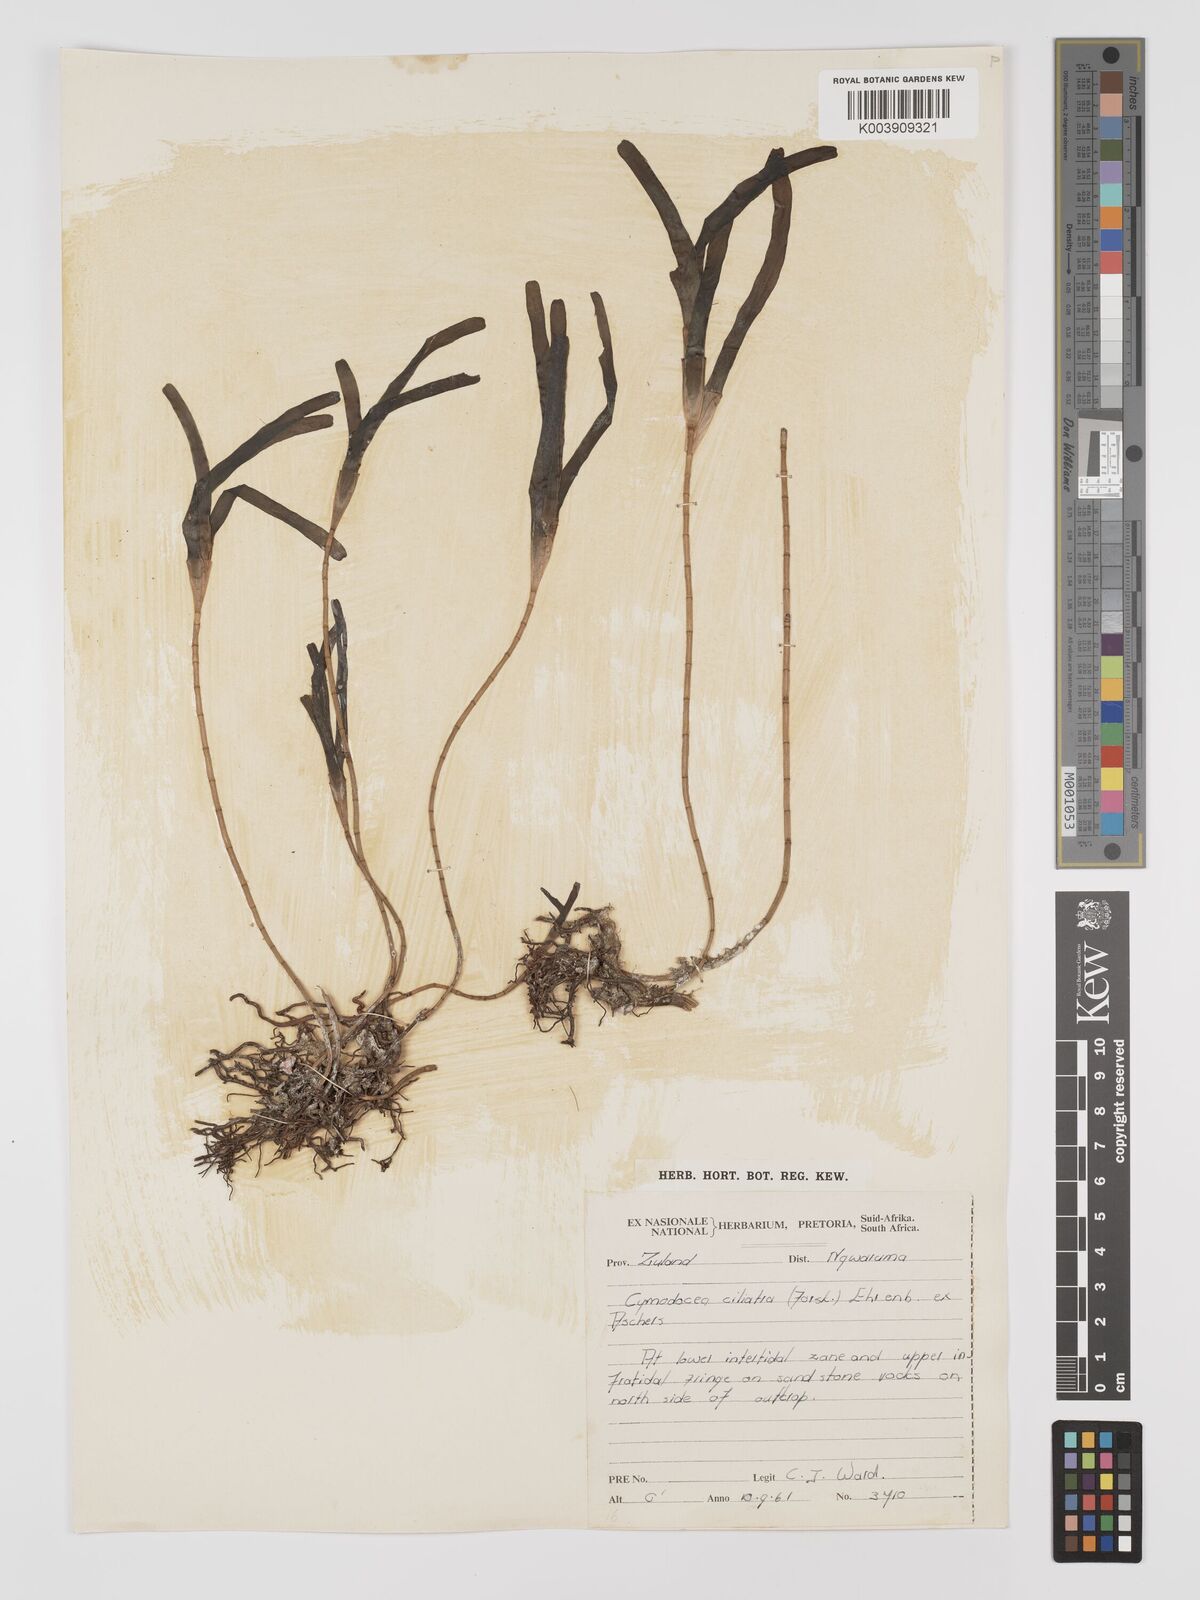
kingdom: Plantae
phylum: Tracheophyta
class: Liliopsida
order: Alismatales
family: Cymodoceaceae
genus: Thalassodendron
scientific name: Thalassodendron ciliatum
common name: Species code: tc
